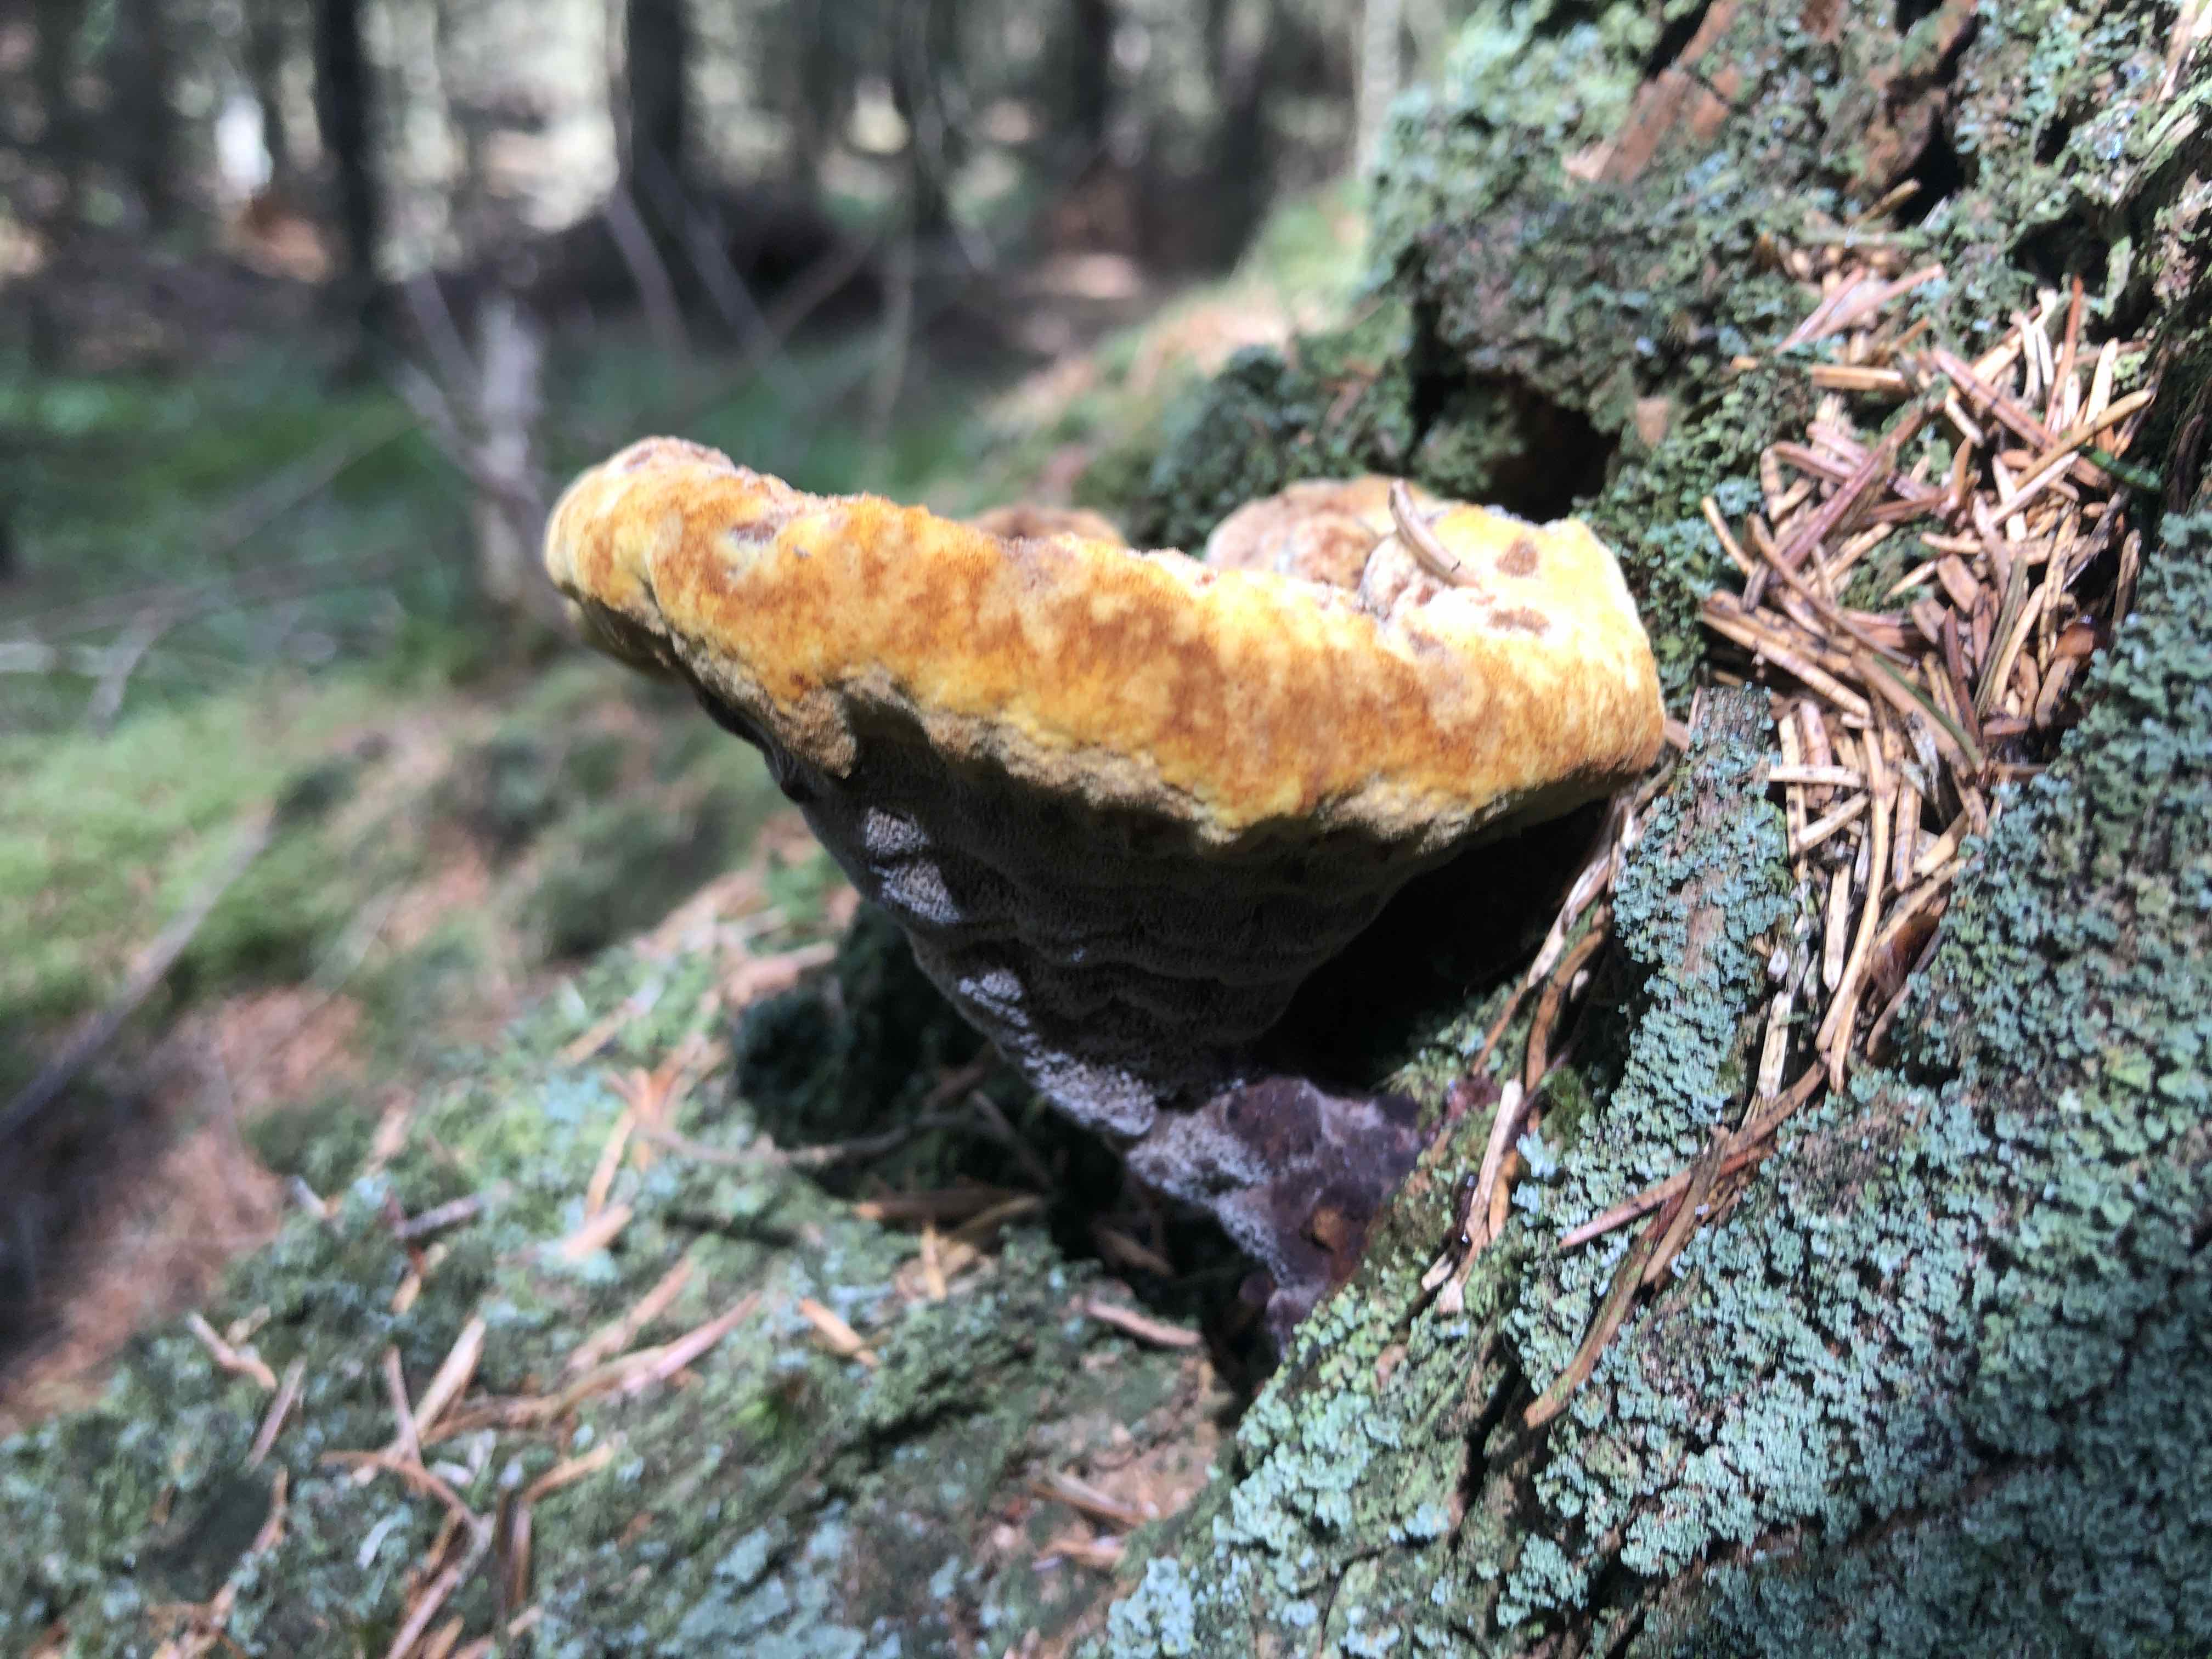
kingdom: Fungi
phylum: Basidiomycota
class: Agaricomycetes
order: Polyporales
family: Laetiporaceae
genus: Phaeolus
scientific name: Phaeolus schweinitzii
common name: brunporesvamp
